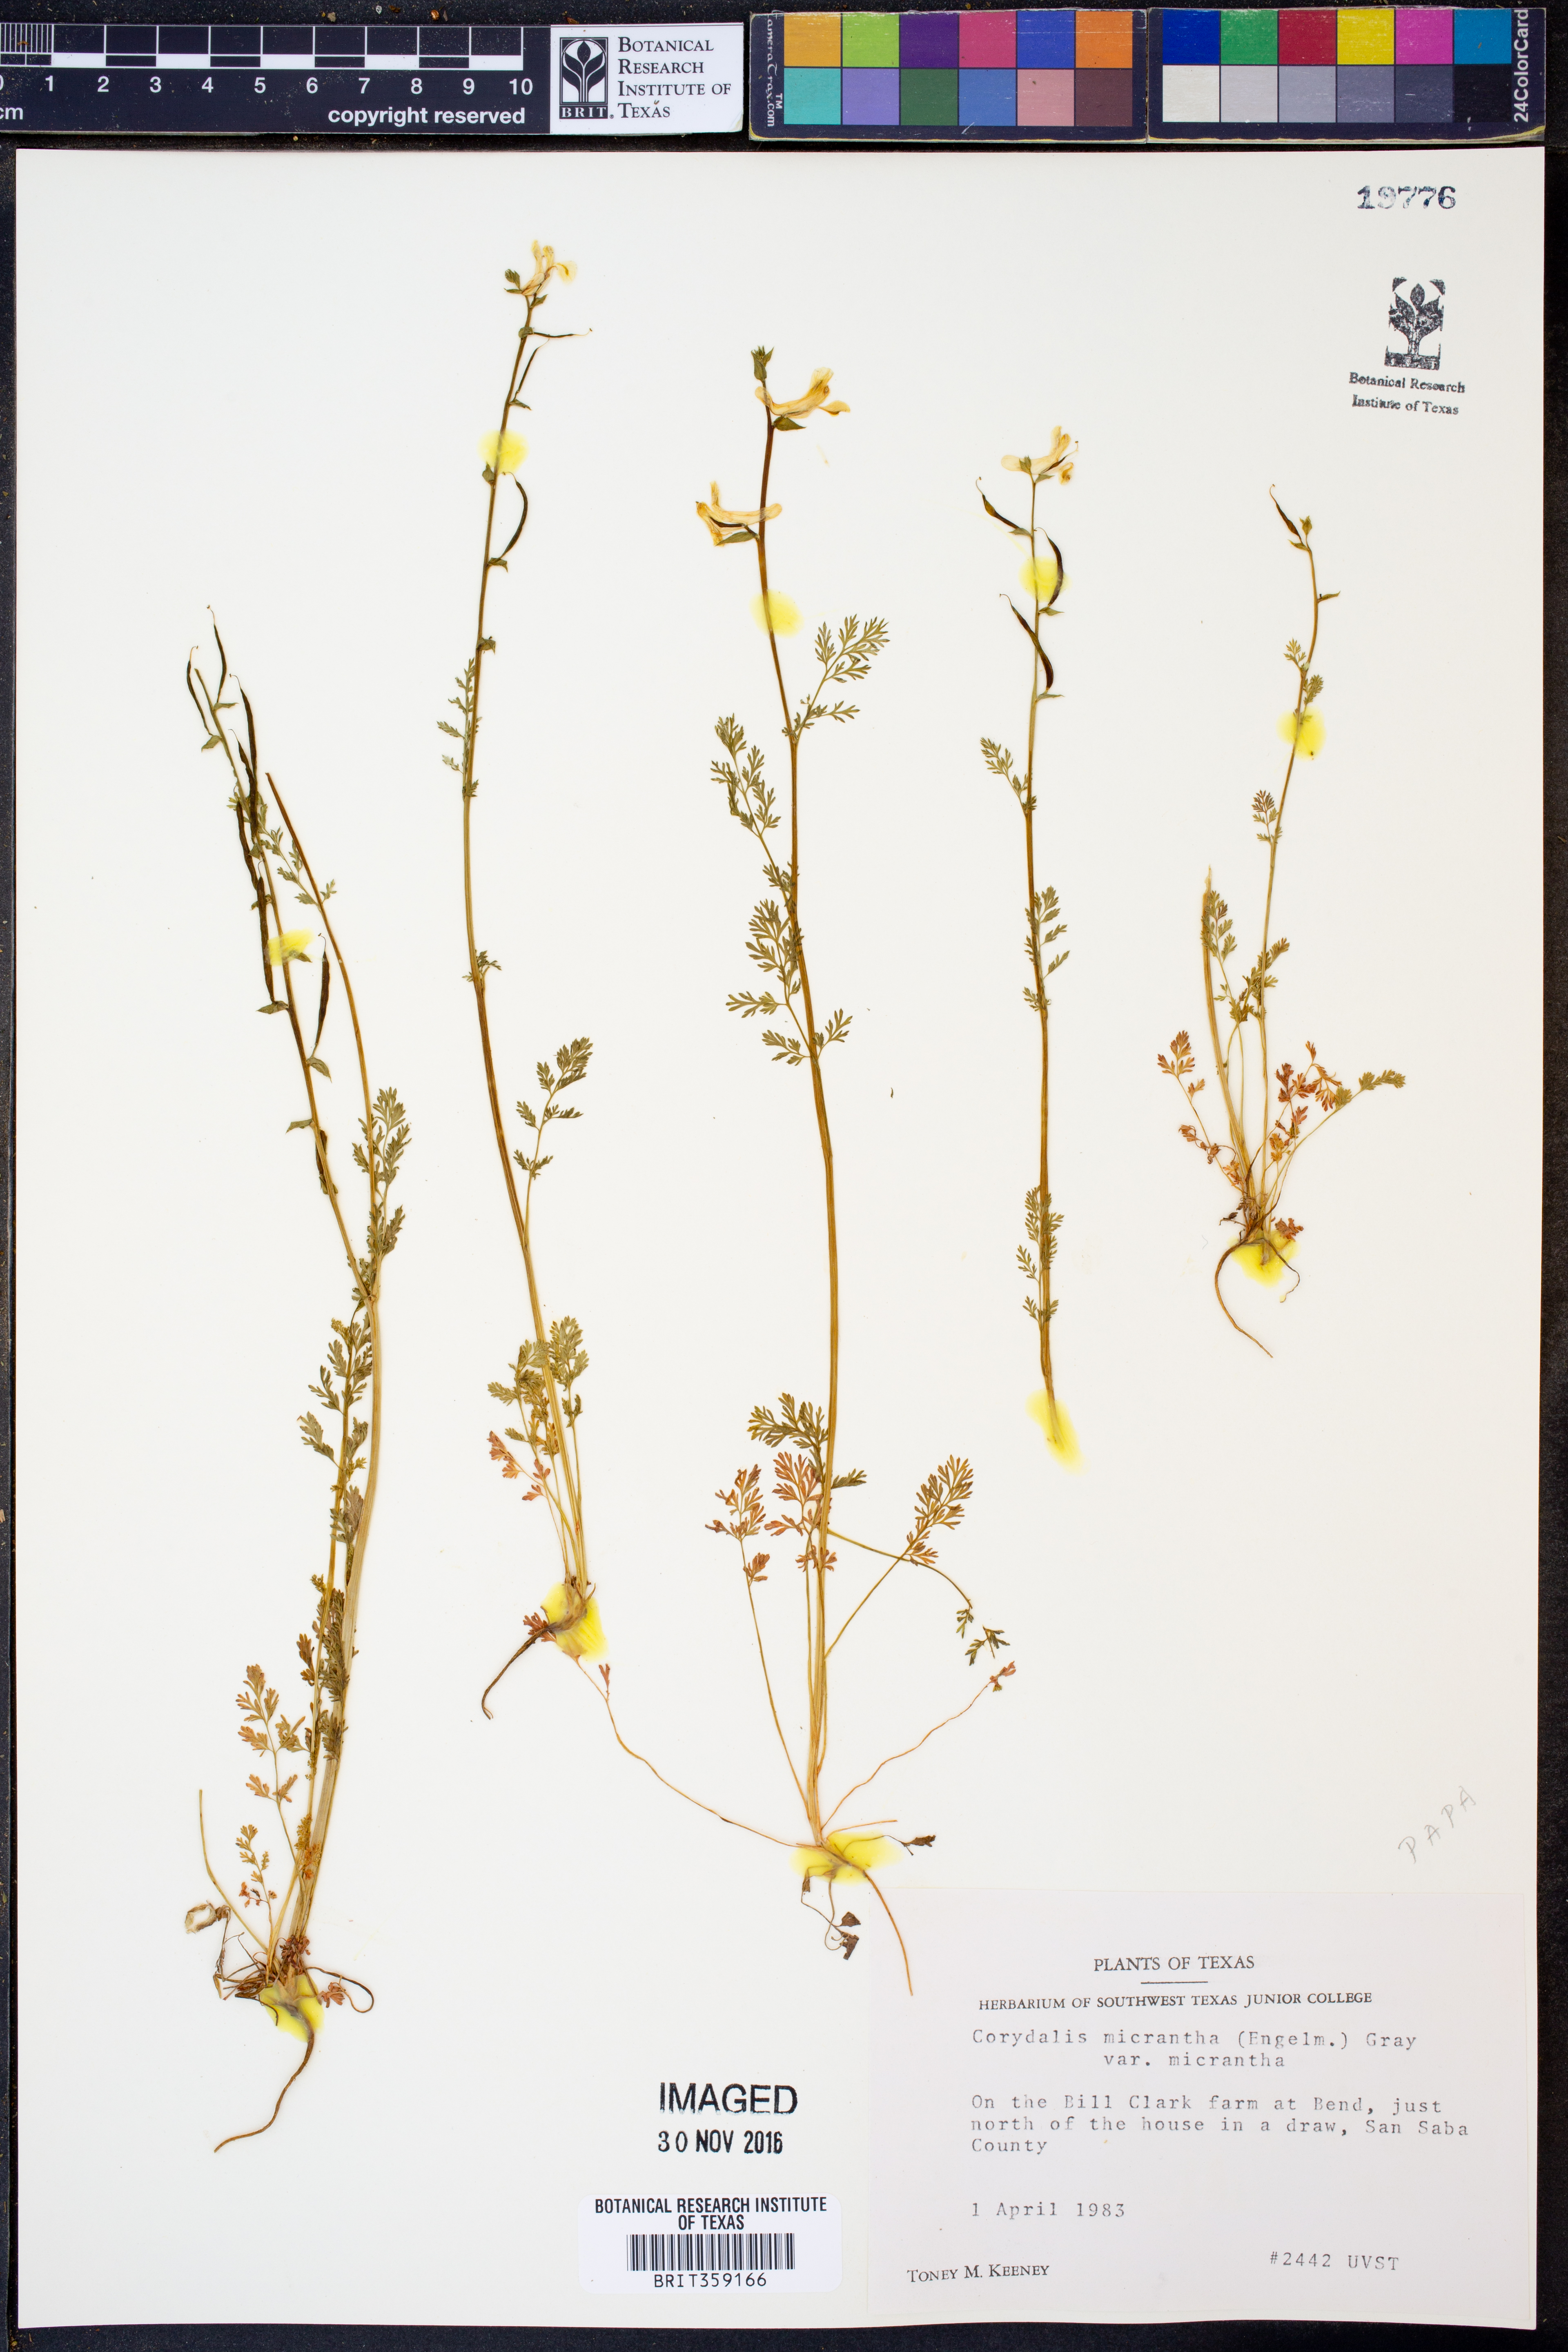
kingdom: Plantae
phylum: Tracheophyta
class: Magnoliopsida
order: Ranunculales
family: Papaveraceae
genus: Corydalis
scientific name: Corydalis micrantha
